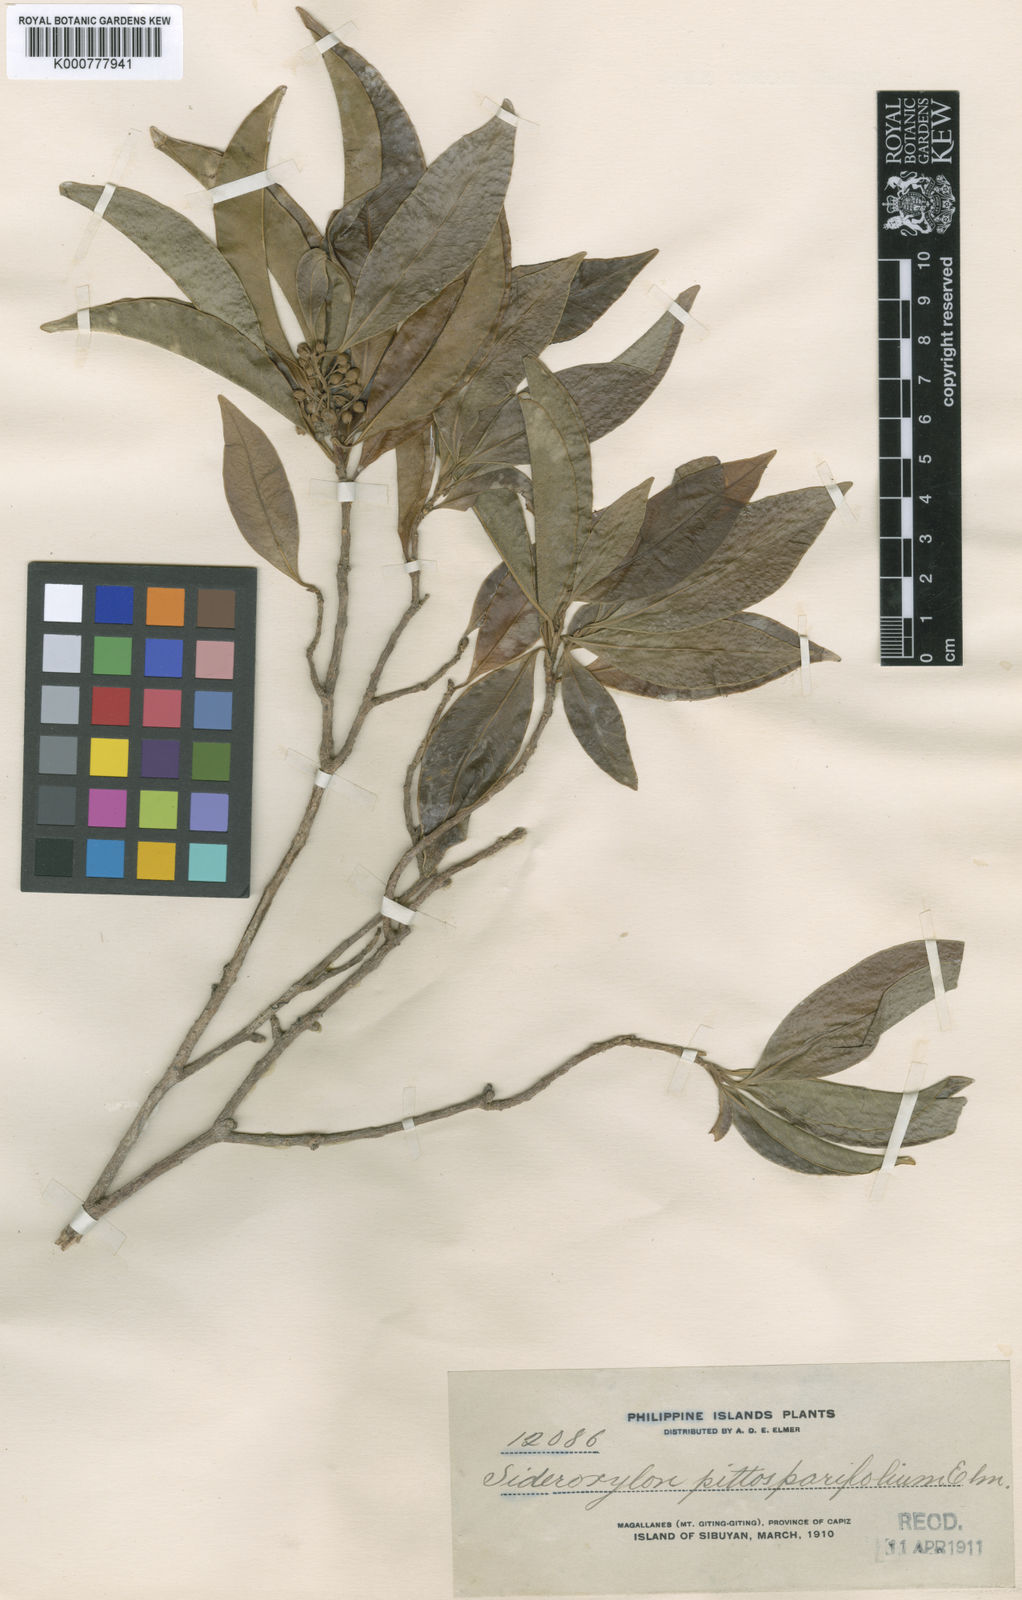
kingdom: Plantae
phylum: Tracheophyta
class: Magnoliopsida
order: Ericales
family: Sapotaceae
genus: Planchonella
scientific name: Planchonella chartacea
